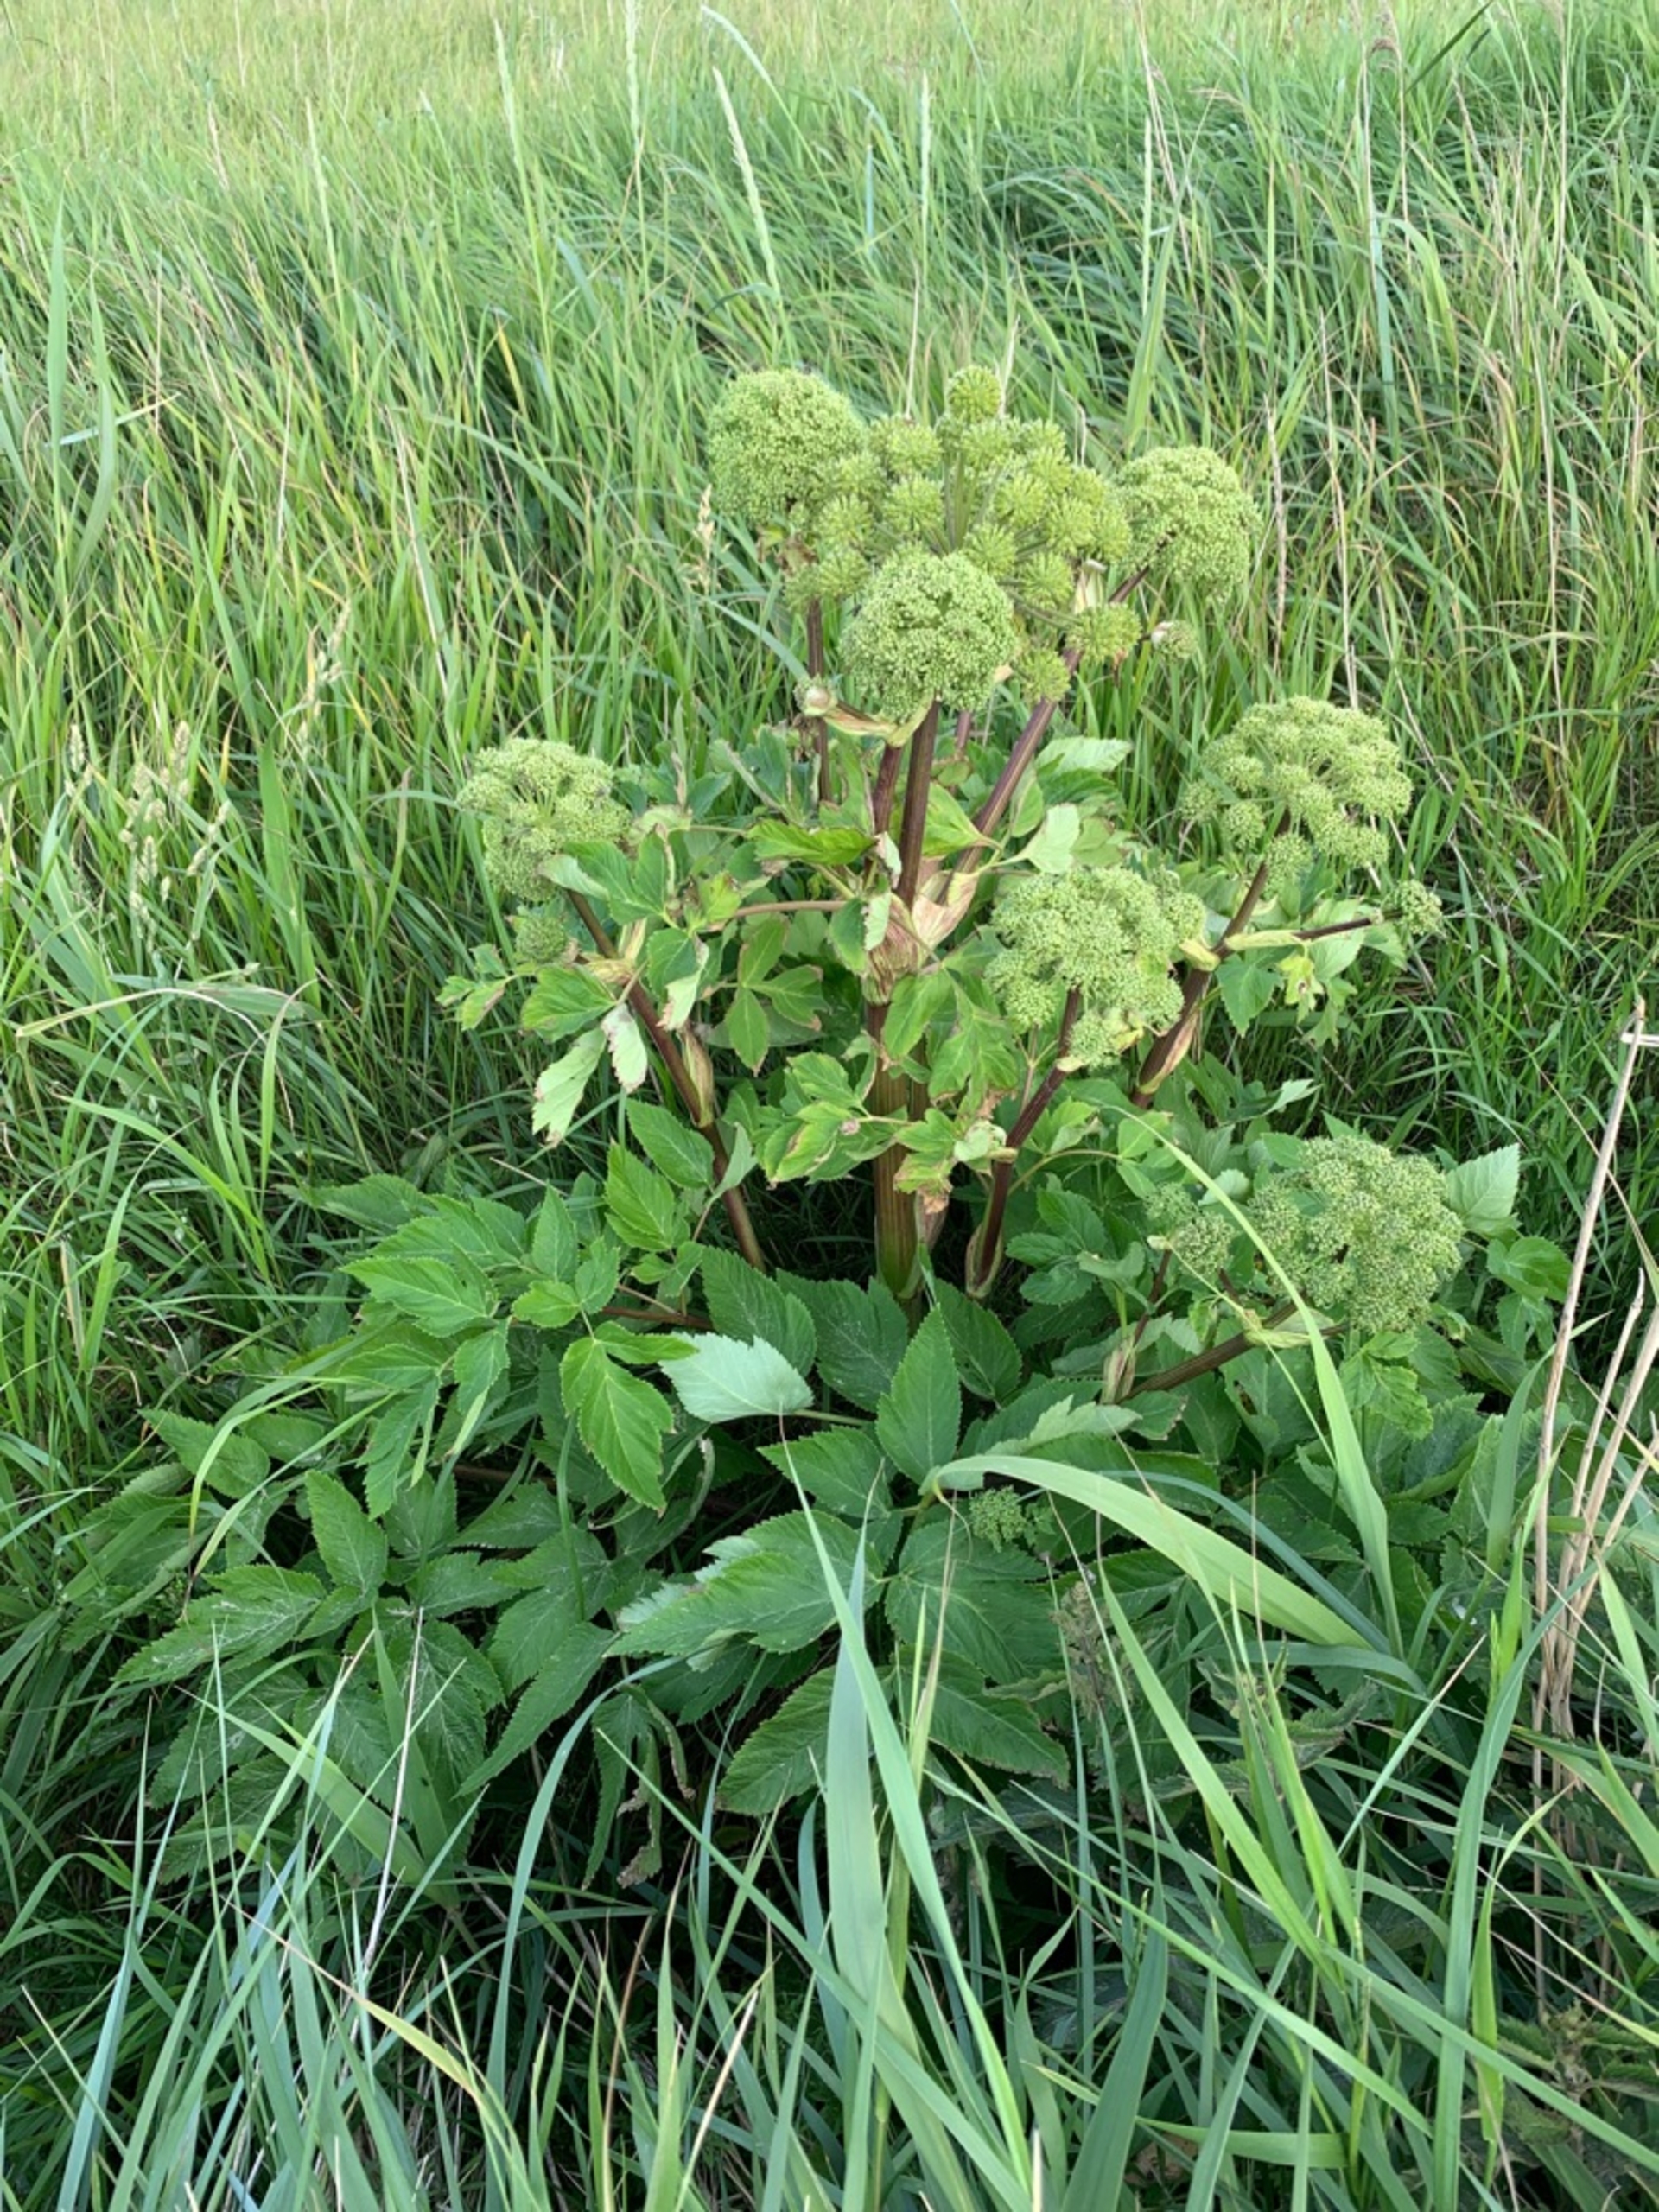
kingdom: Plantae
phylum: Tracheophyta
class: Magnoliopsida
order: Apiales
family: Apiaceae
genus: Angelica
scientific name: Angelica archangelica
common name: Kvan
